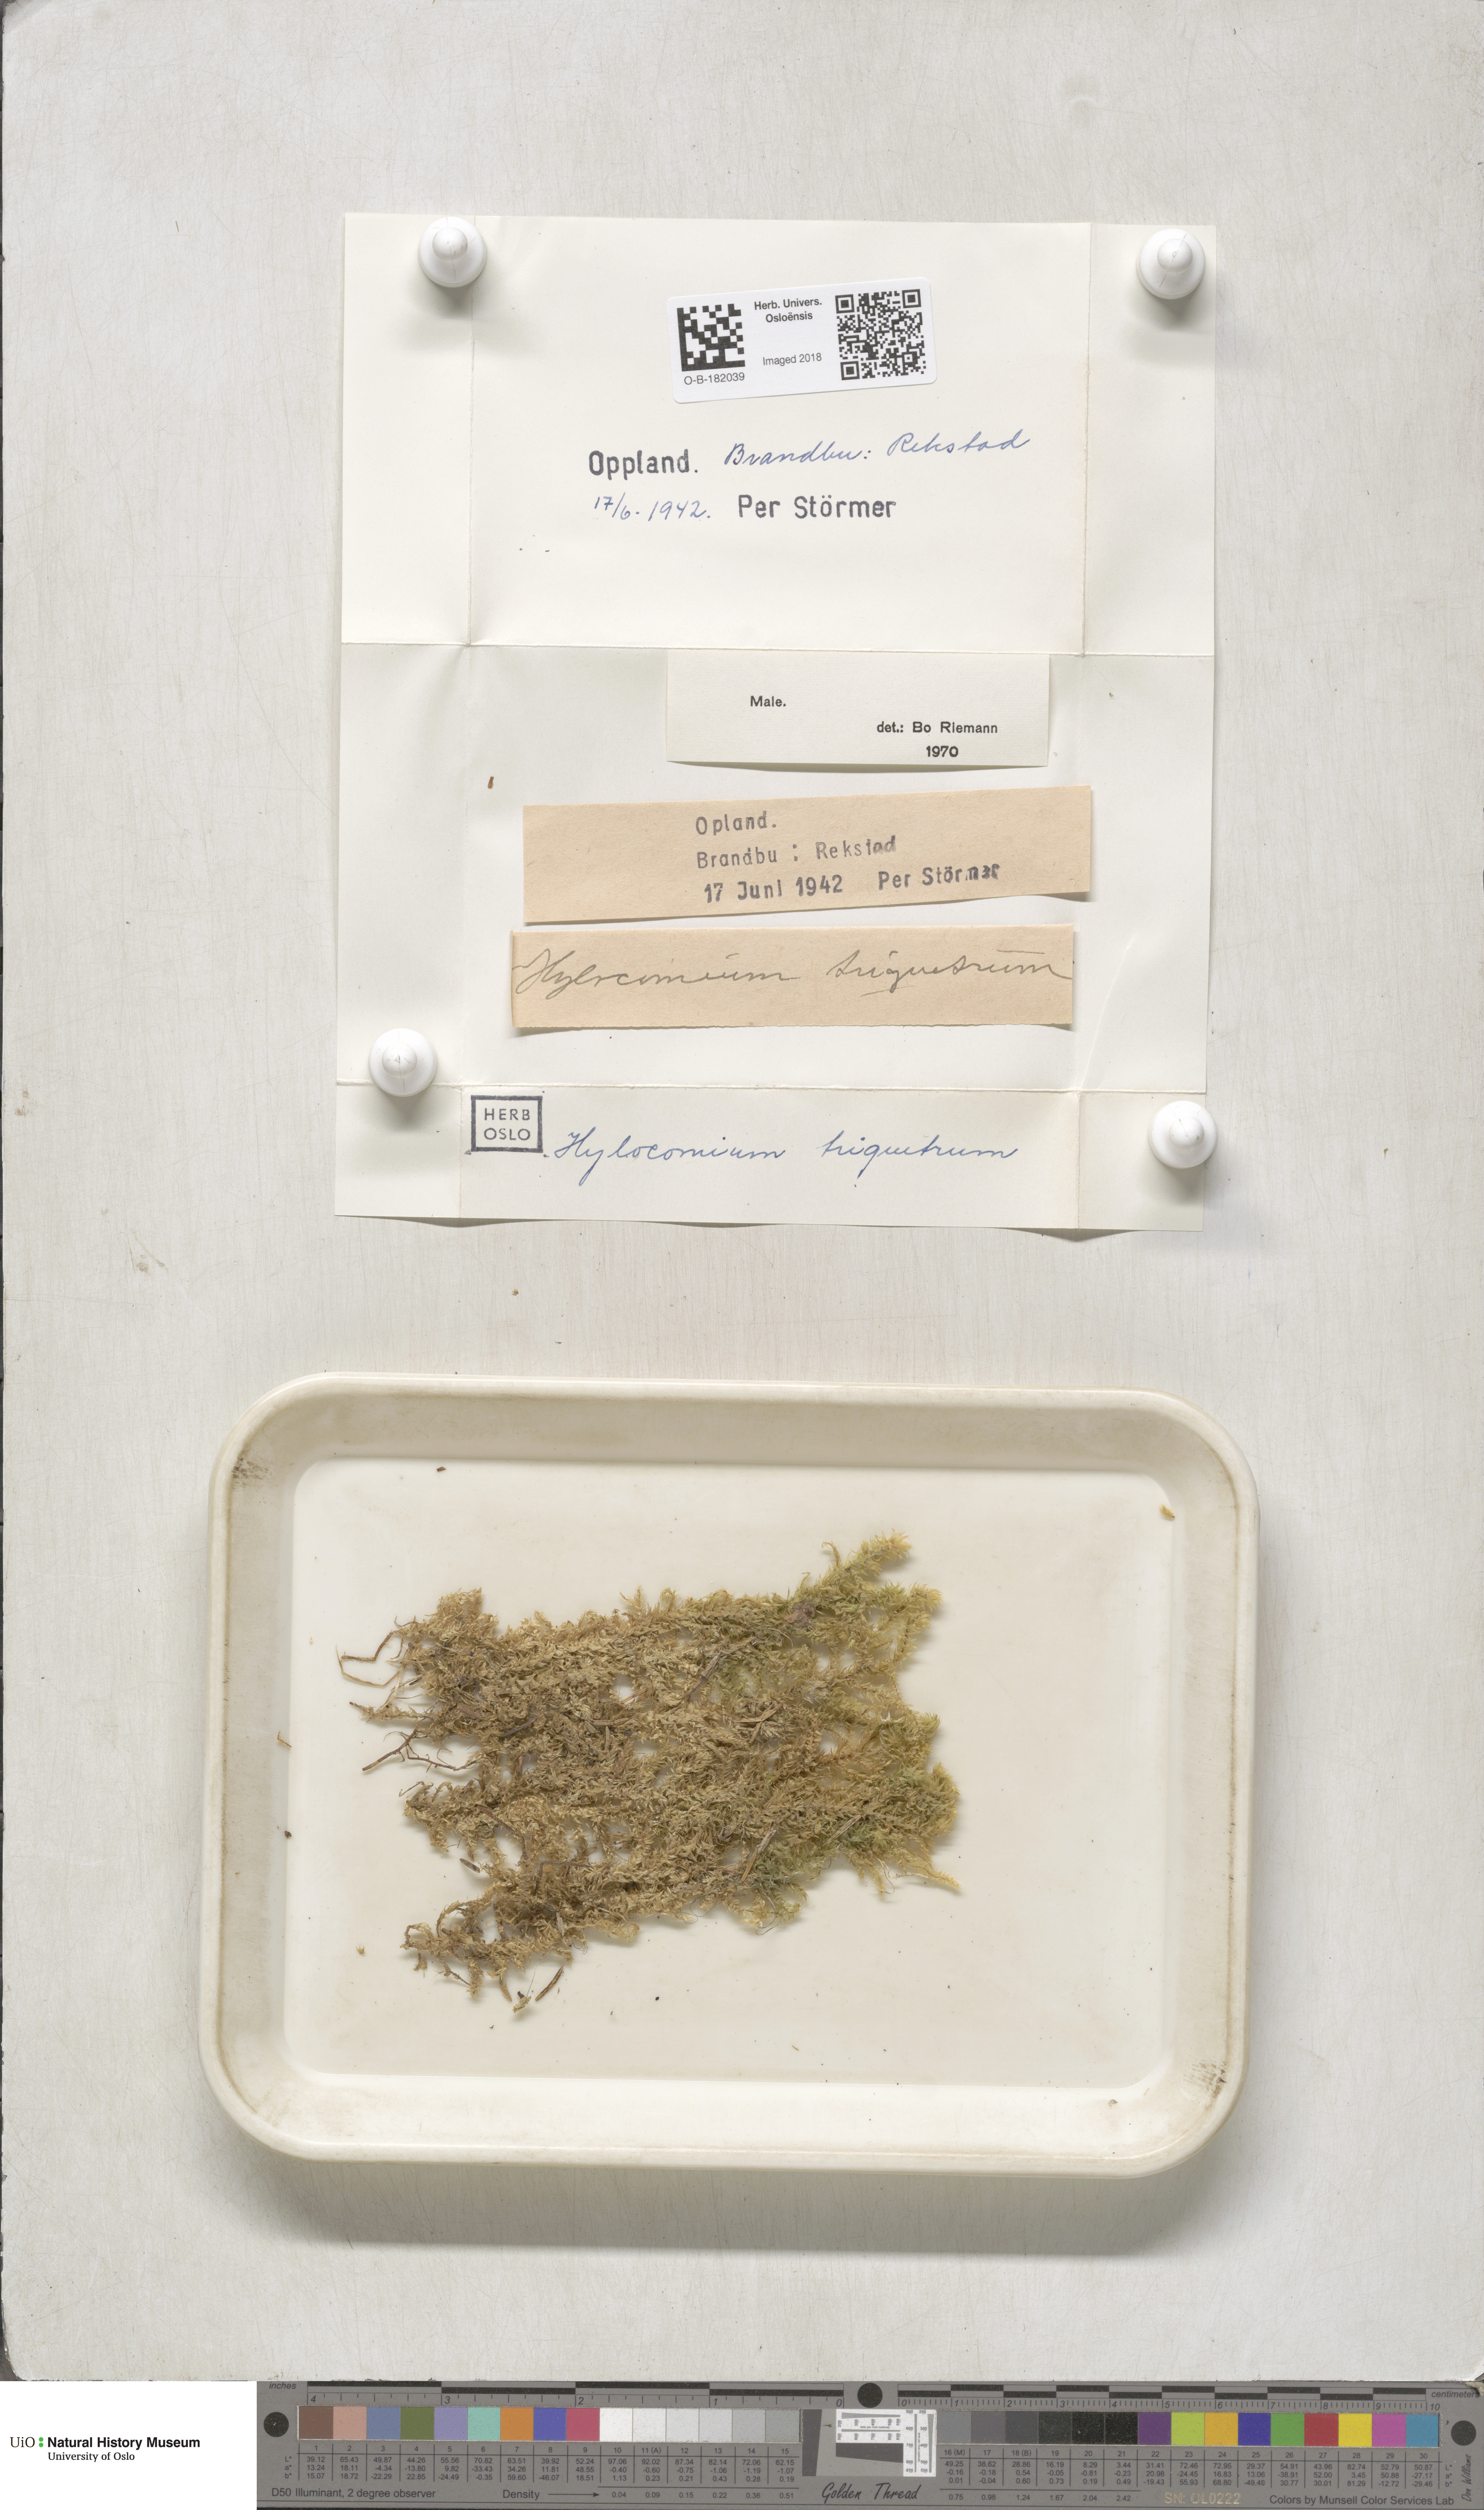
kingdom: Plantae
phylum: Bryophyta
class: Bryopsida
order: Hypnales
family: Hylocomiaceae
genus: Hylocomiadelphus
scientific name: Hylocomiadelphus triquetrus
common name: Rough goose neck moss
